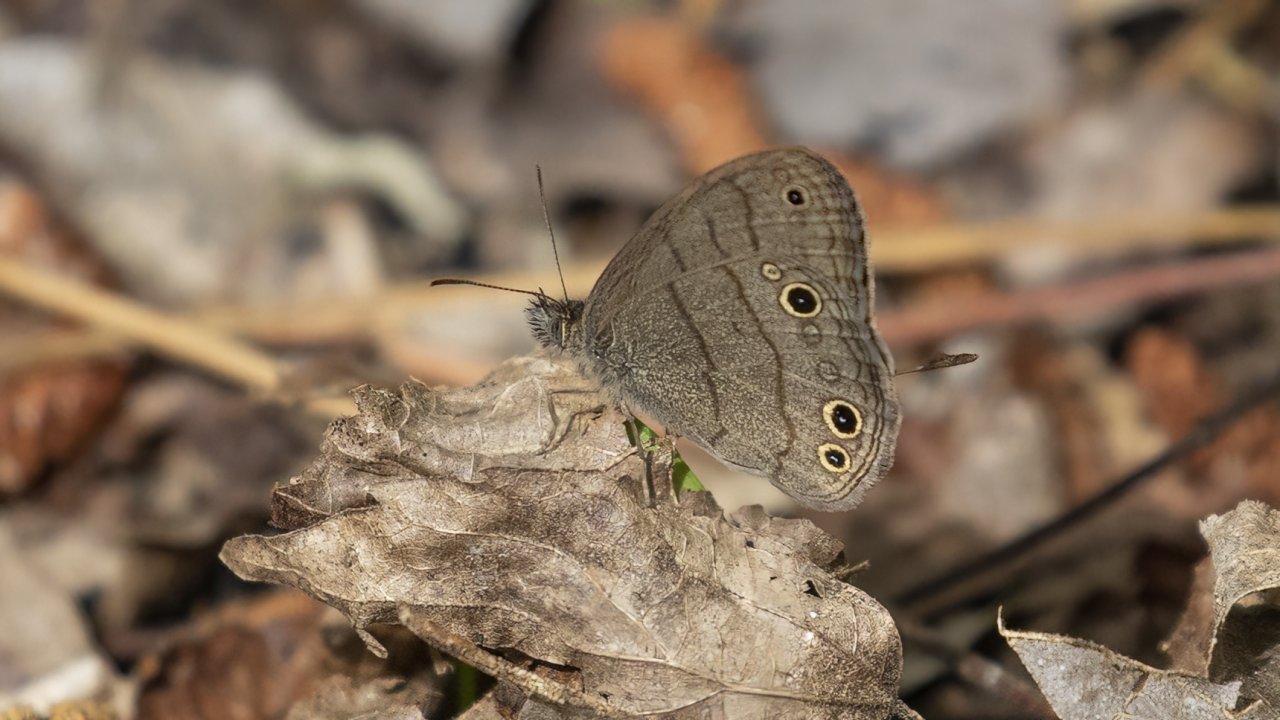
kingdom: Animalia
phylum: Arthropoda
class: Insecta
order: Lepidoptera
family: Nymphalidae
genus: Hermeuptychia
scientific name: Hermeuptychia intricata
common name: Intricate Satyr
